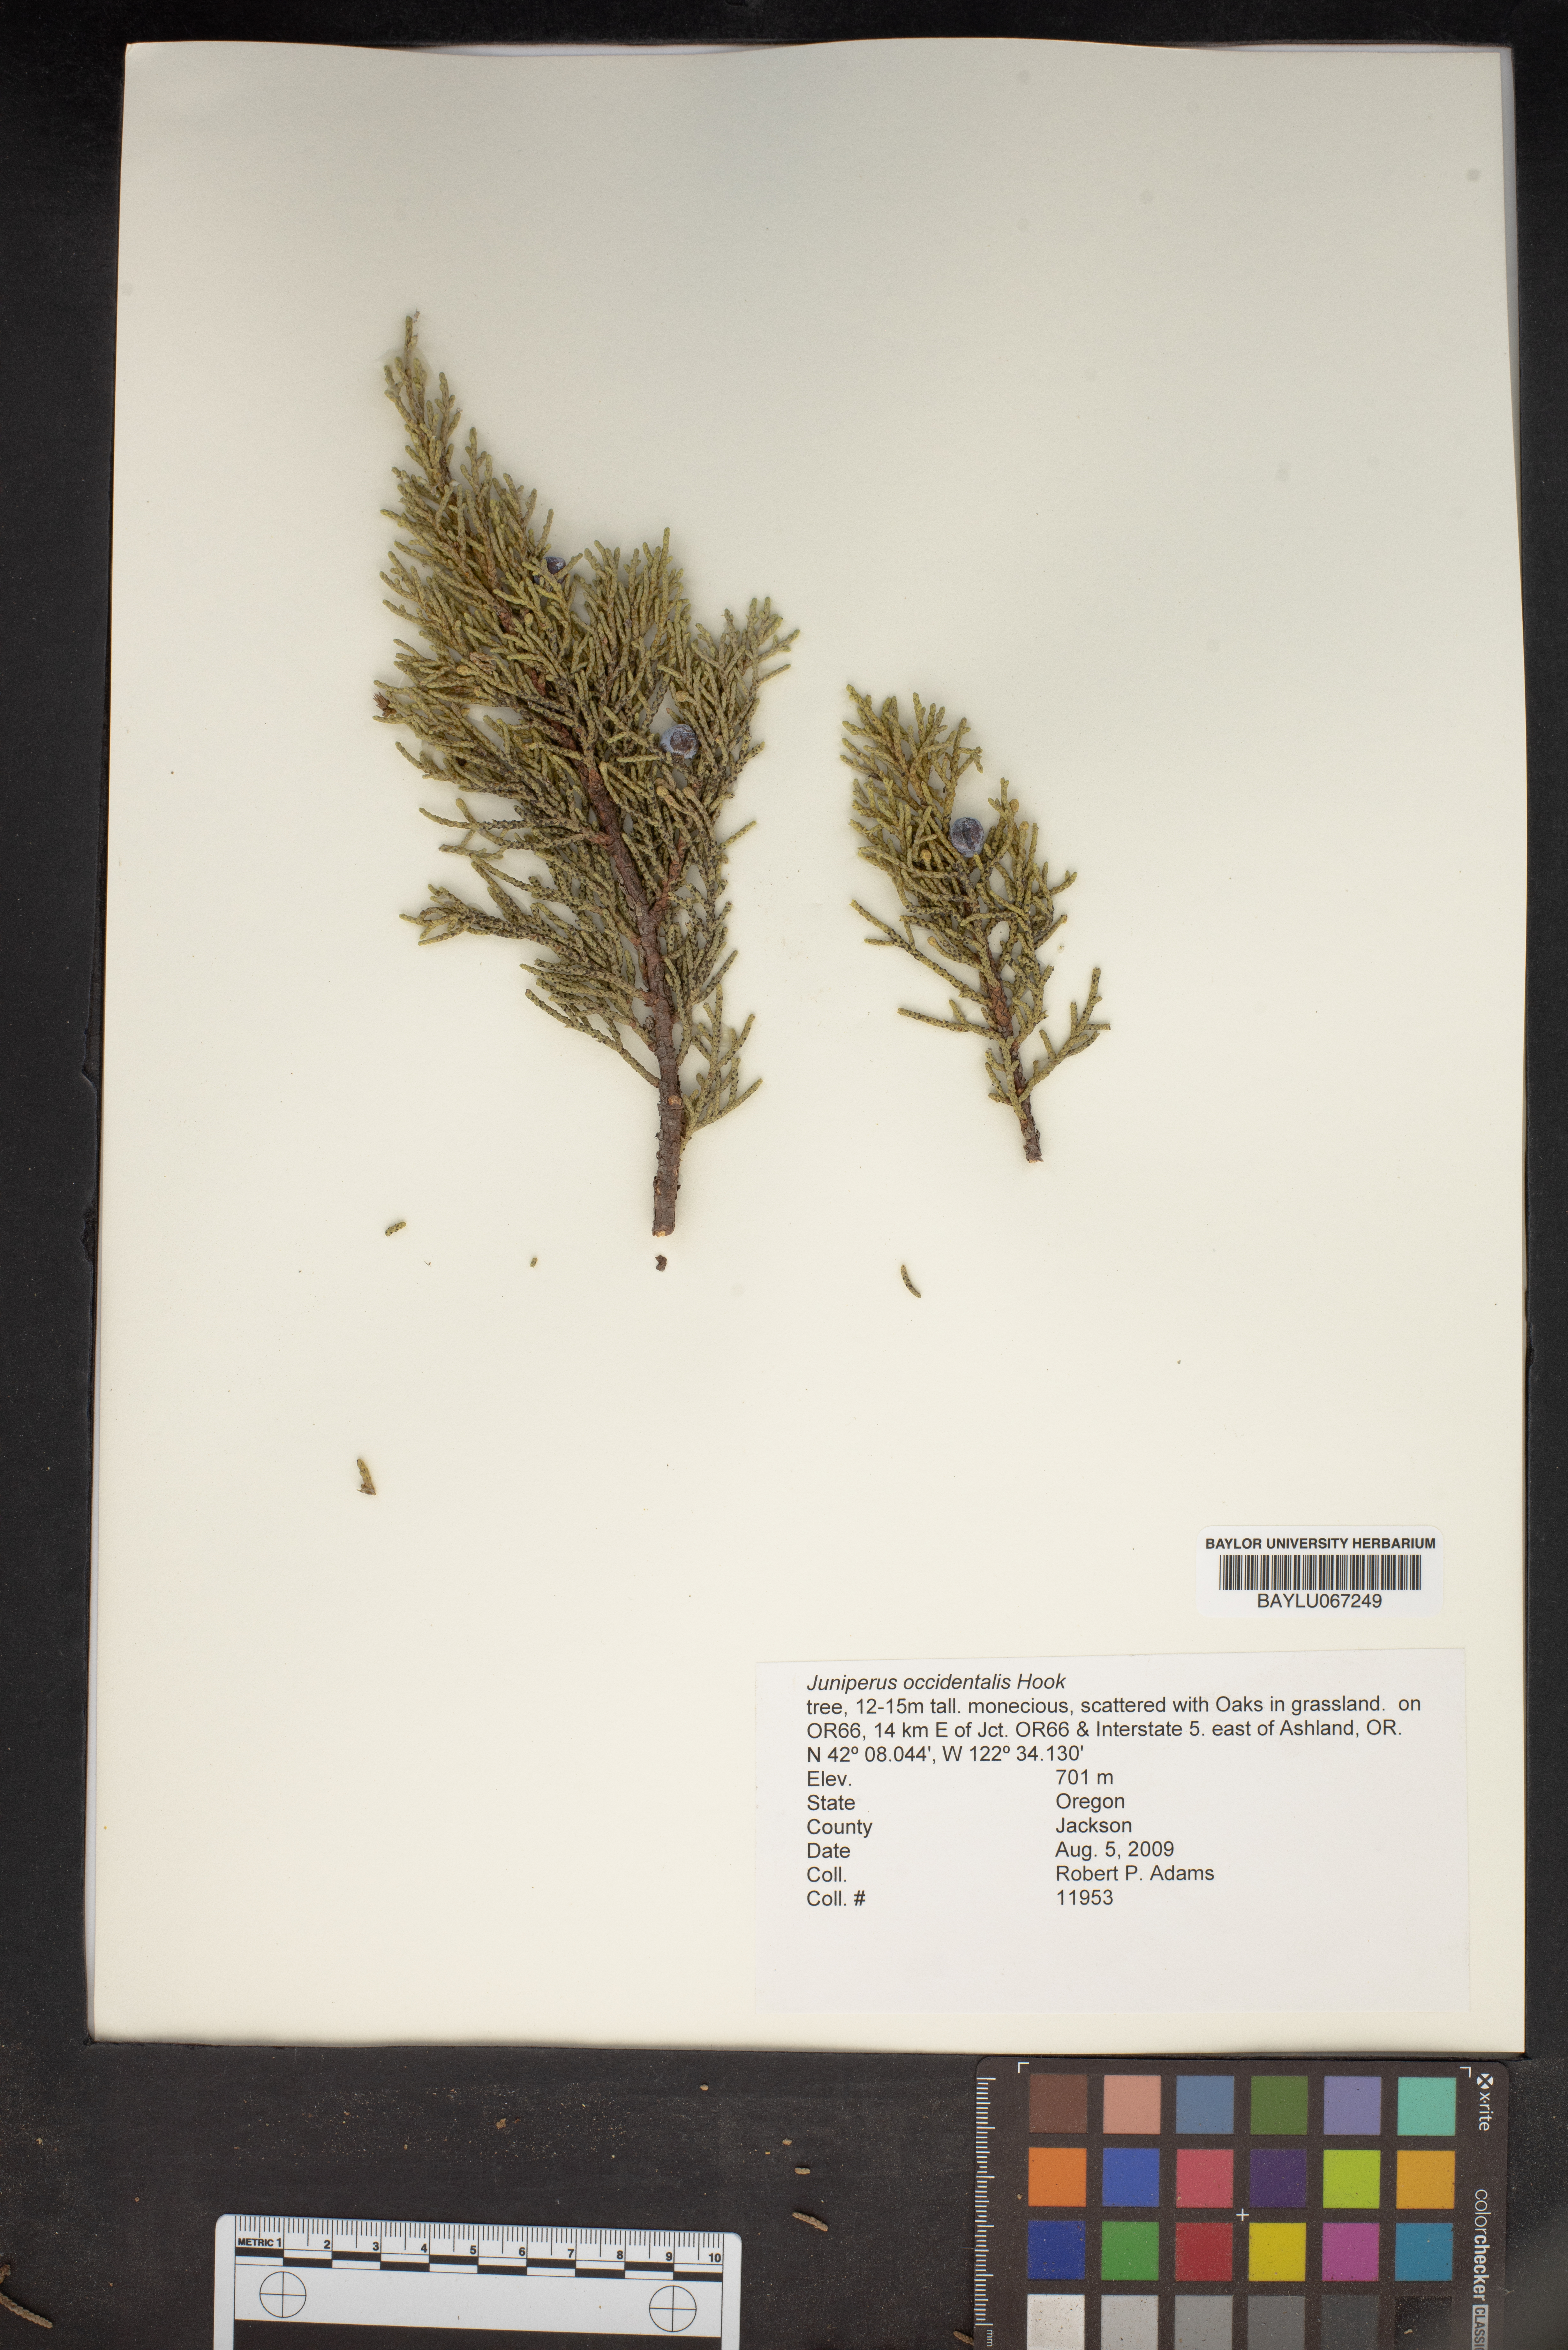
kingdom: Plantae
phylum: Tracheophyta
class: Pinopsida
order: Pinales
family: Cupressaceae
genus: Juniperus
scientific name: Juniperus occidentalis
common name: Western juniper
